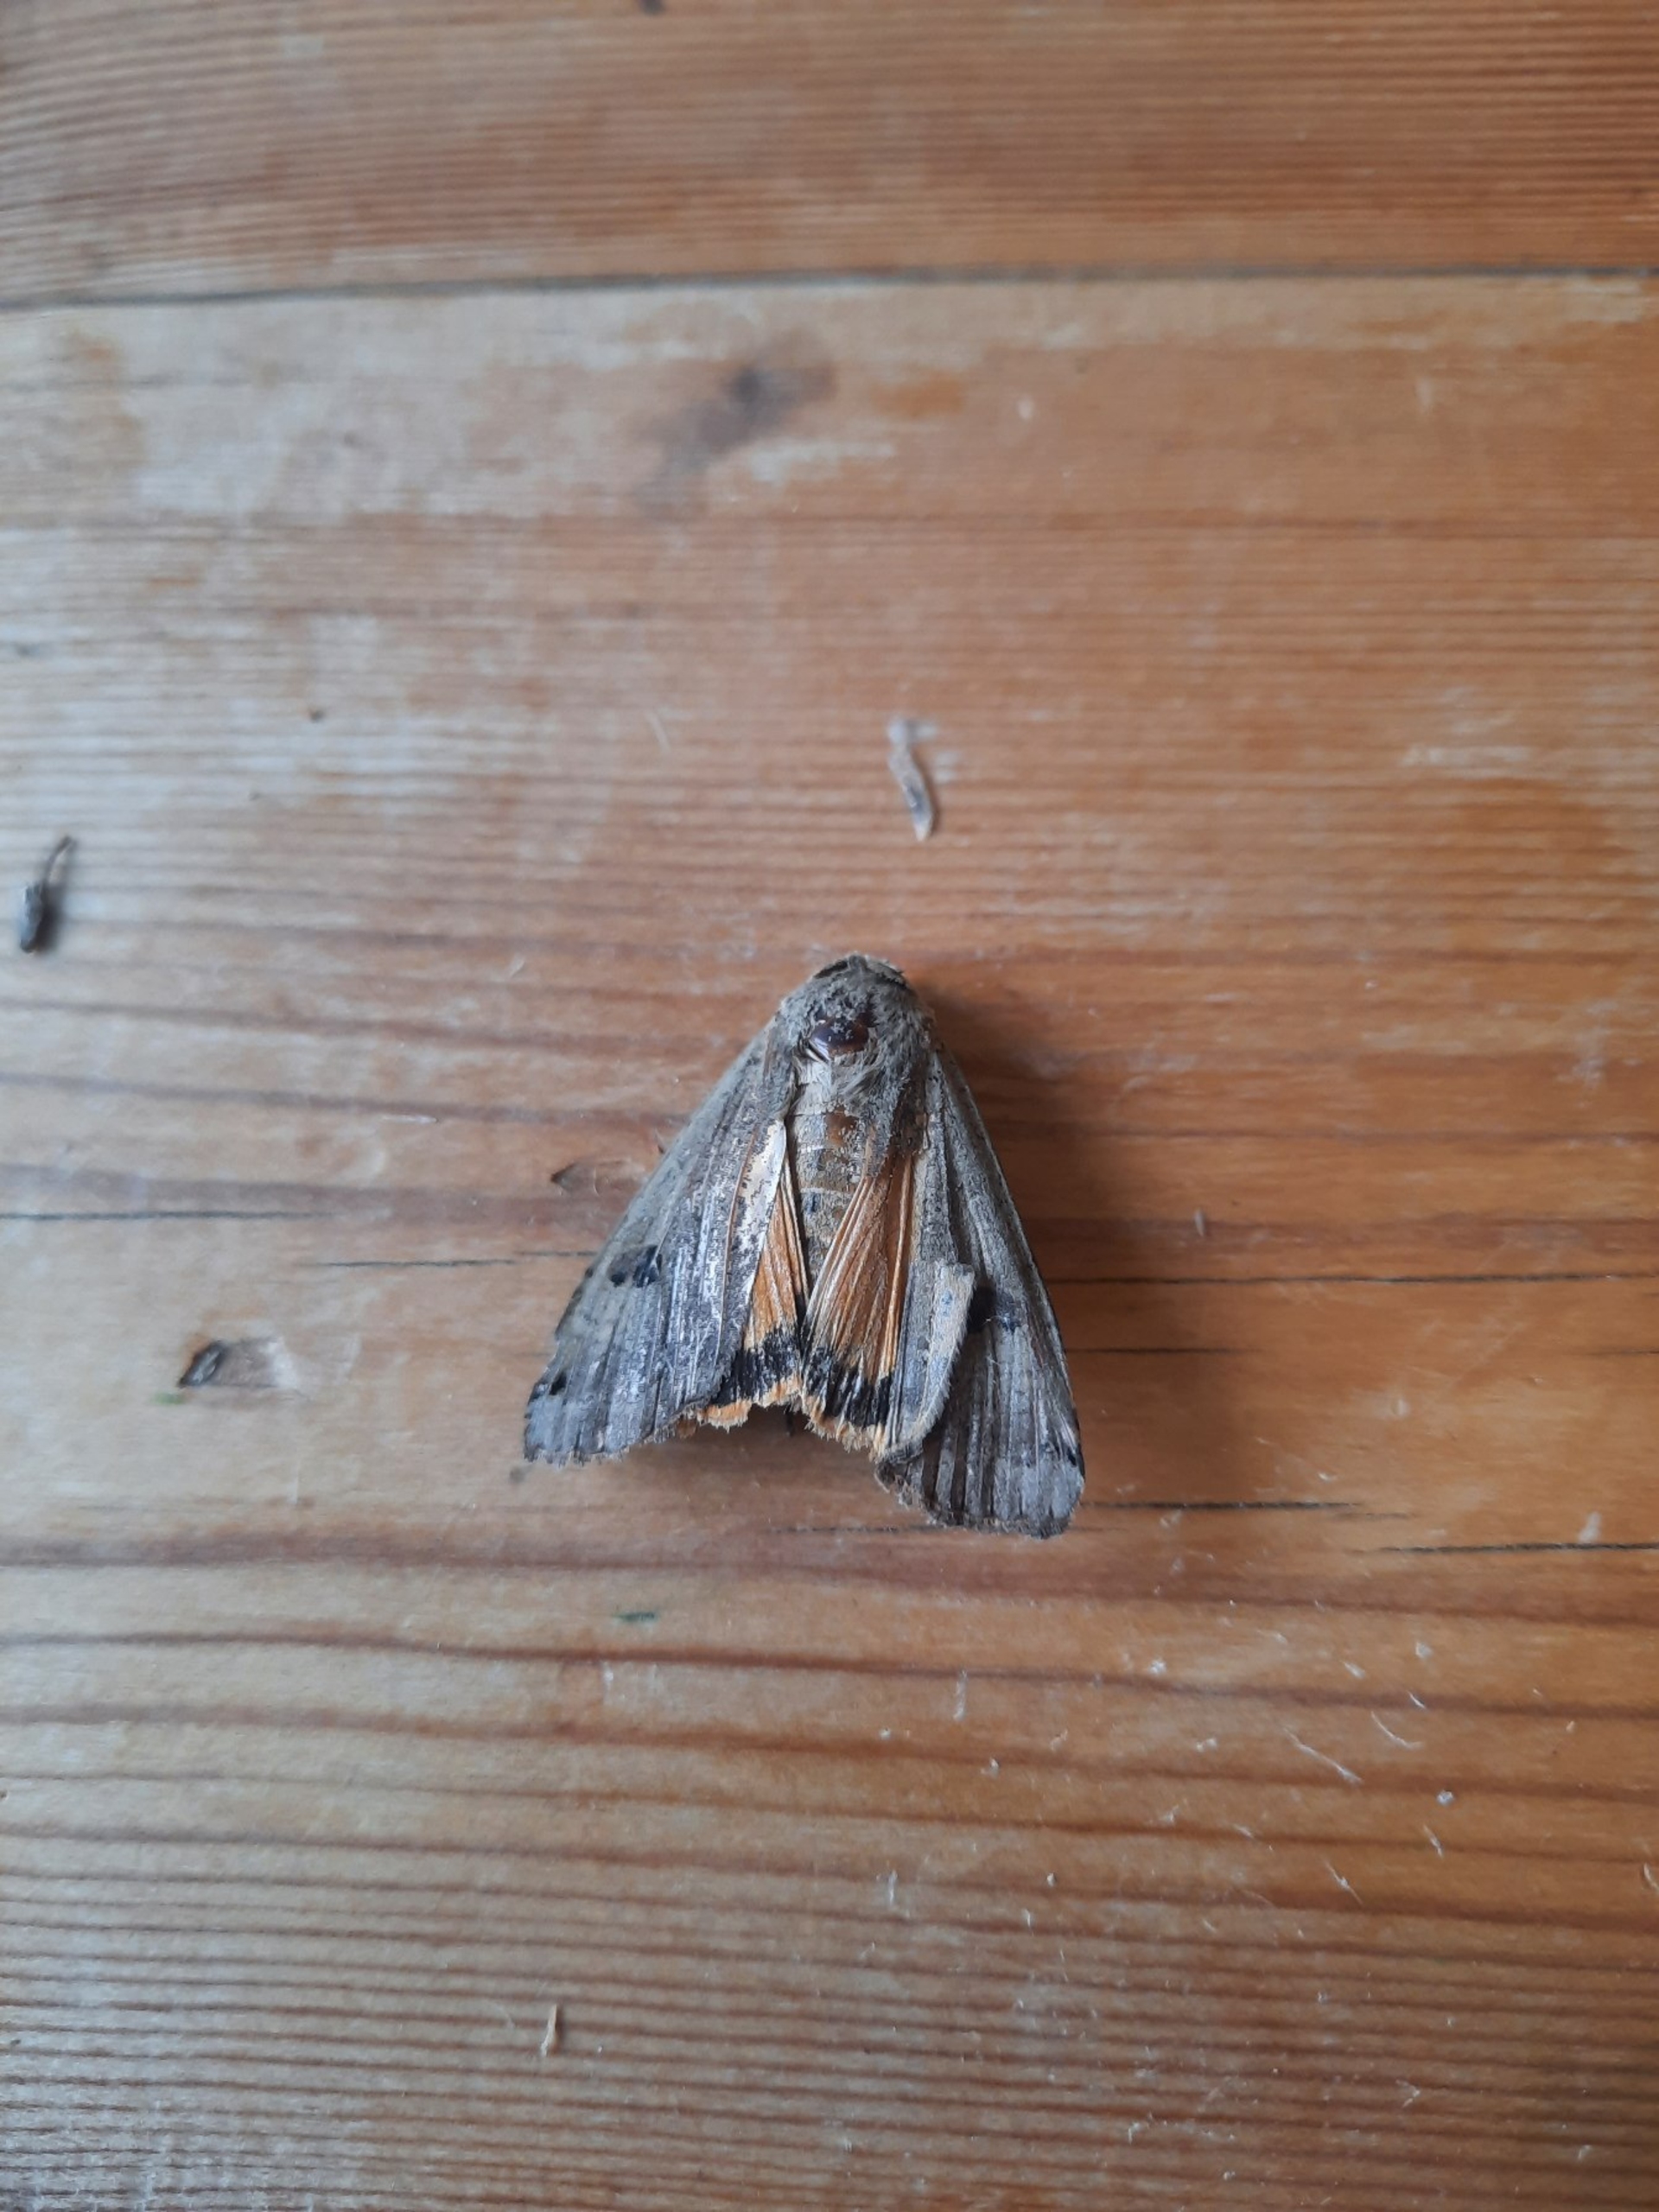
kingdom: Animalia
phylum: Arthropoda
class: Insecta
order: Lepidoptera
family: Noctuidae
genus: Noctua
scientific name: Noctua pronuba
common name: Stor smutugle
